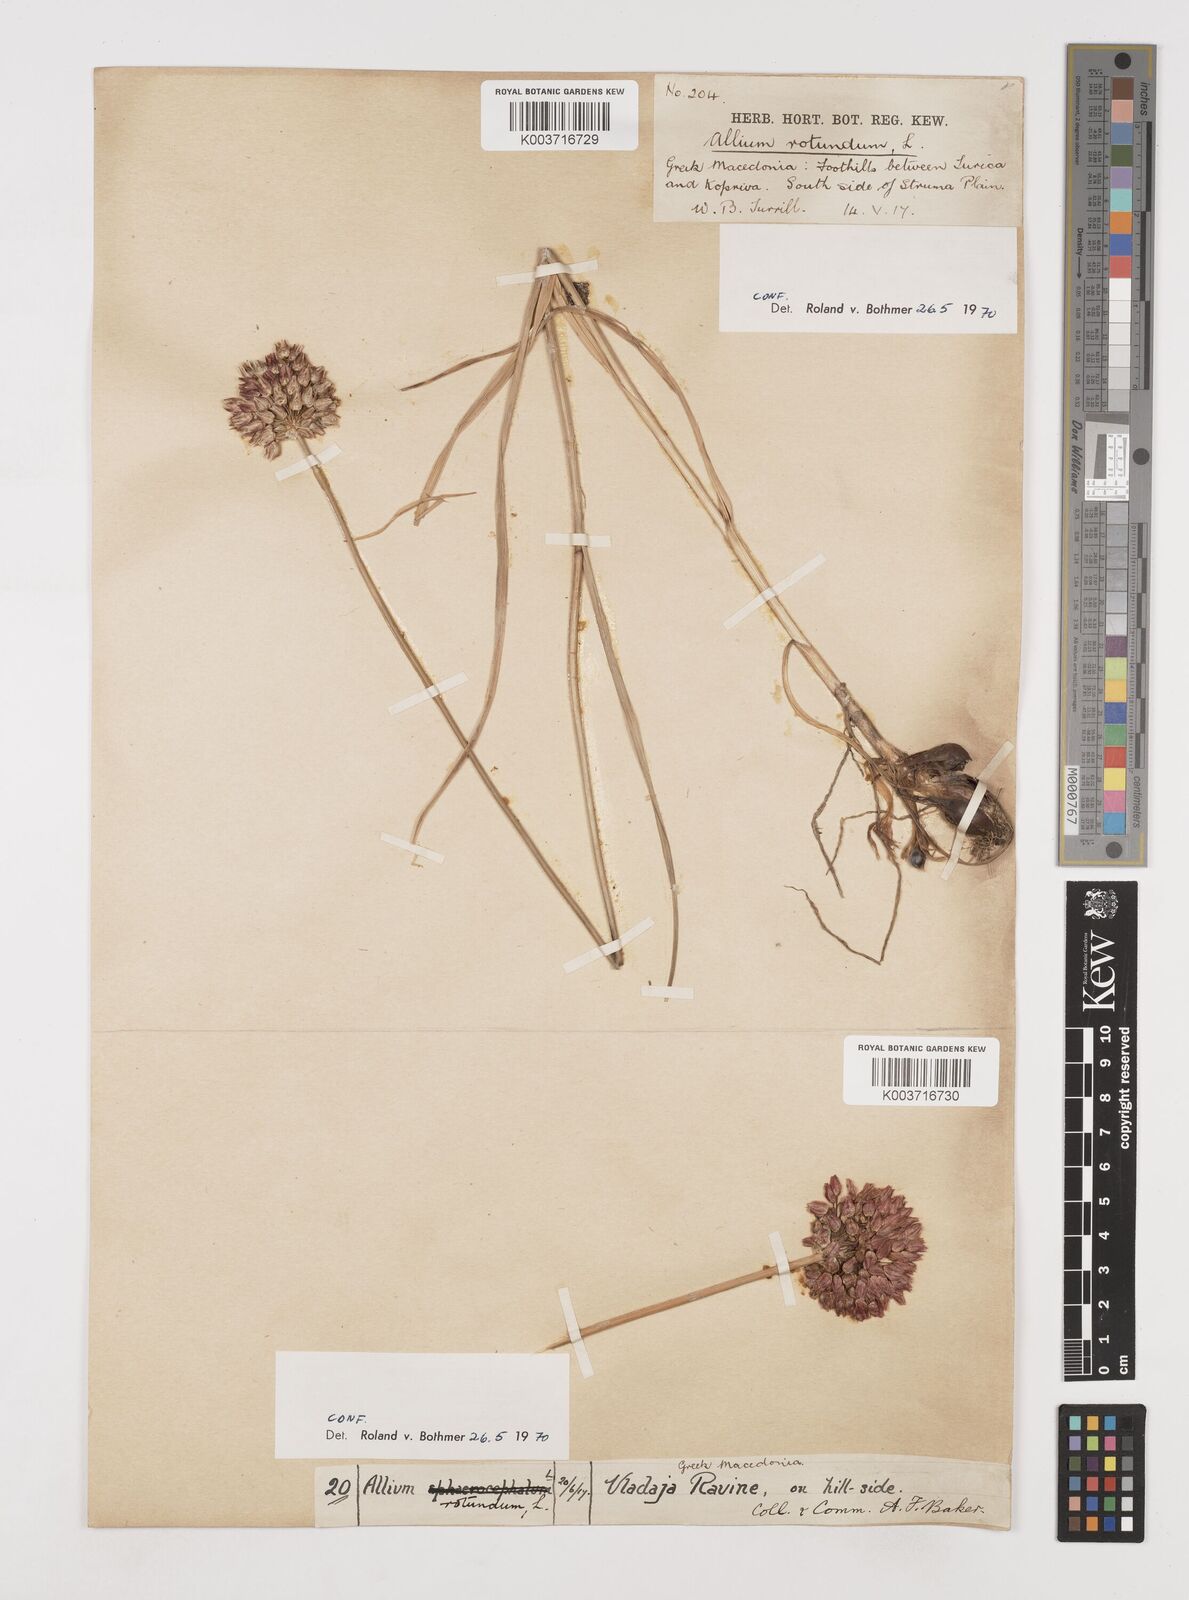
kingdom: Plantae
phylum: Tracheophyta
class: Liliopsida
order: Asparagales
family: Amaryllidaceae
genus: Allium
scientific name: Allium rotundum
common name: Sand leek
